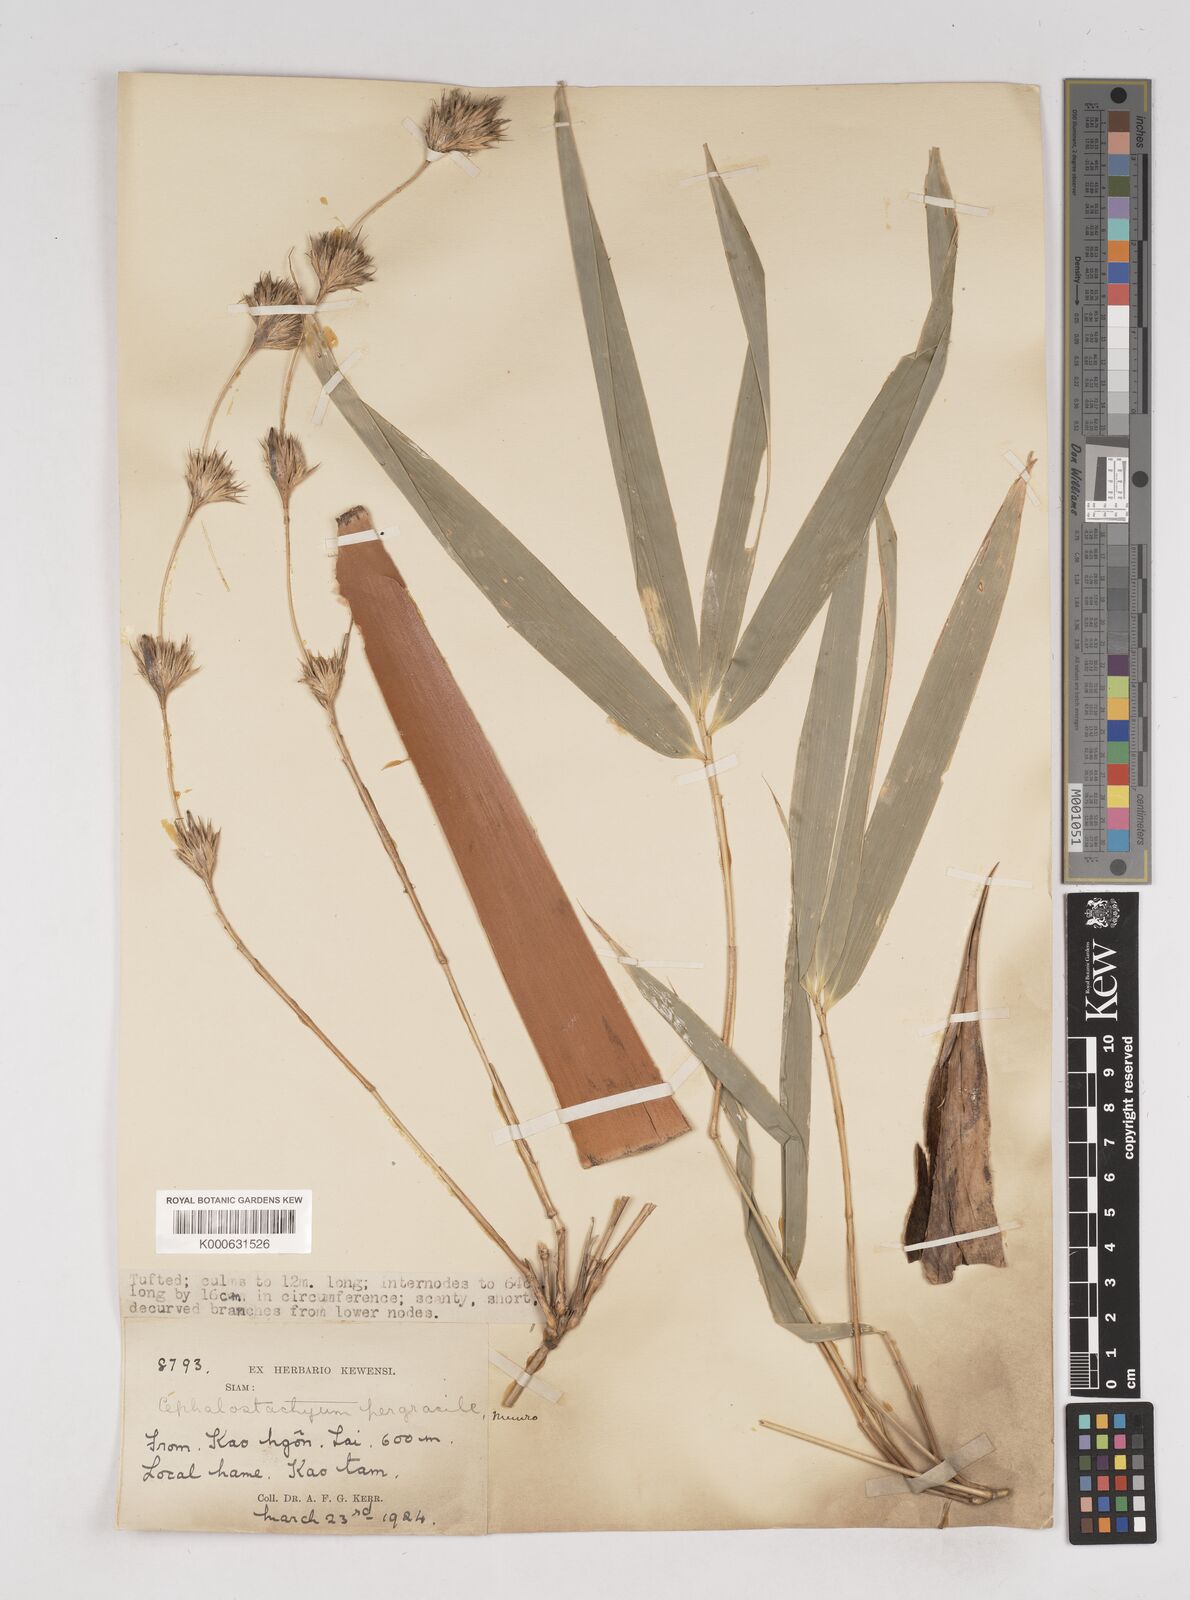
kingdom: Plantae
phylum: Tracheophyta
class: Liliopsida
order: Poales
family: Poaceae
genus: Schizostachyum
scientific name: Schizostachyum pergracile
